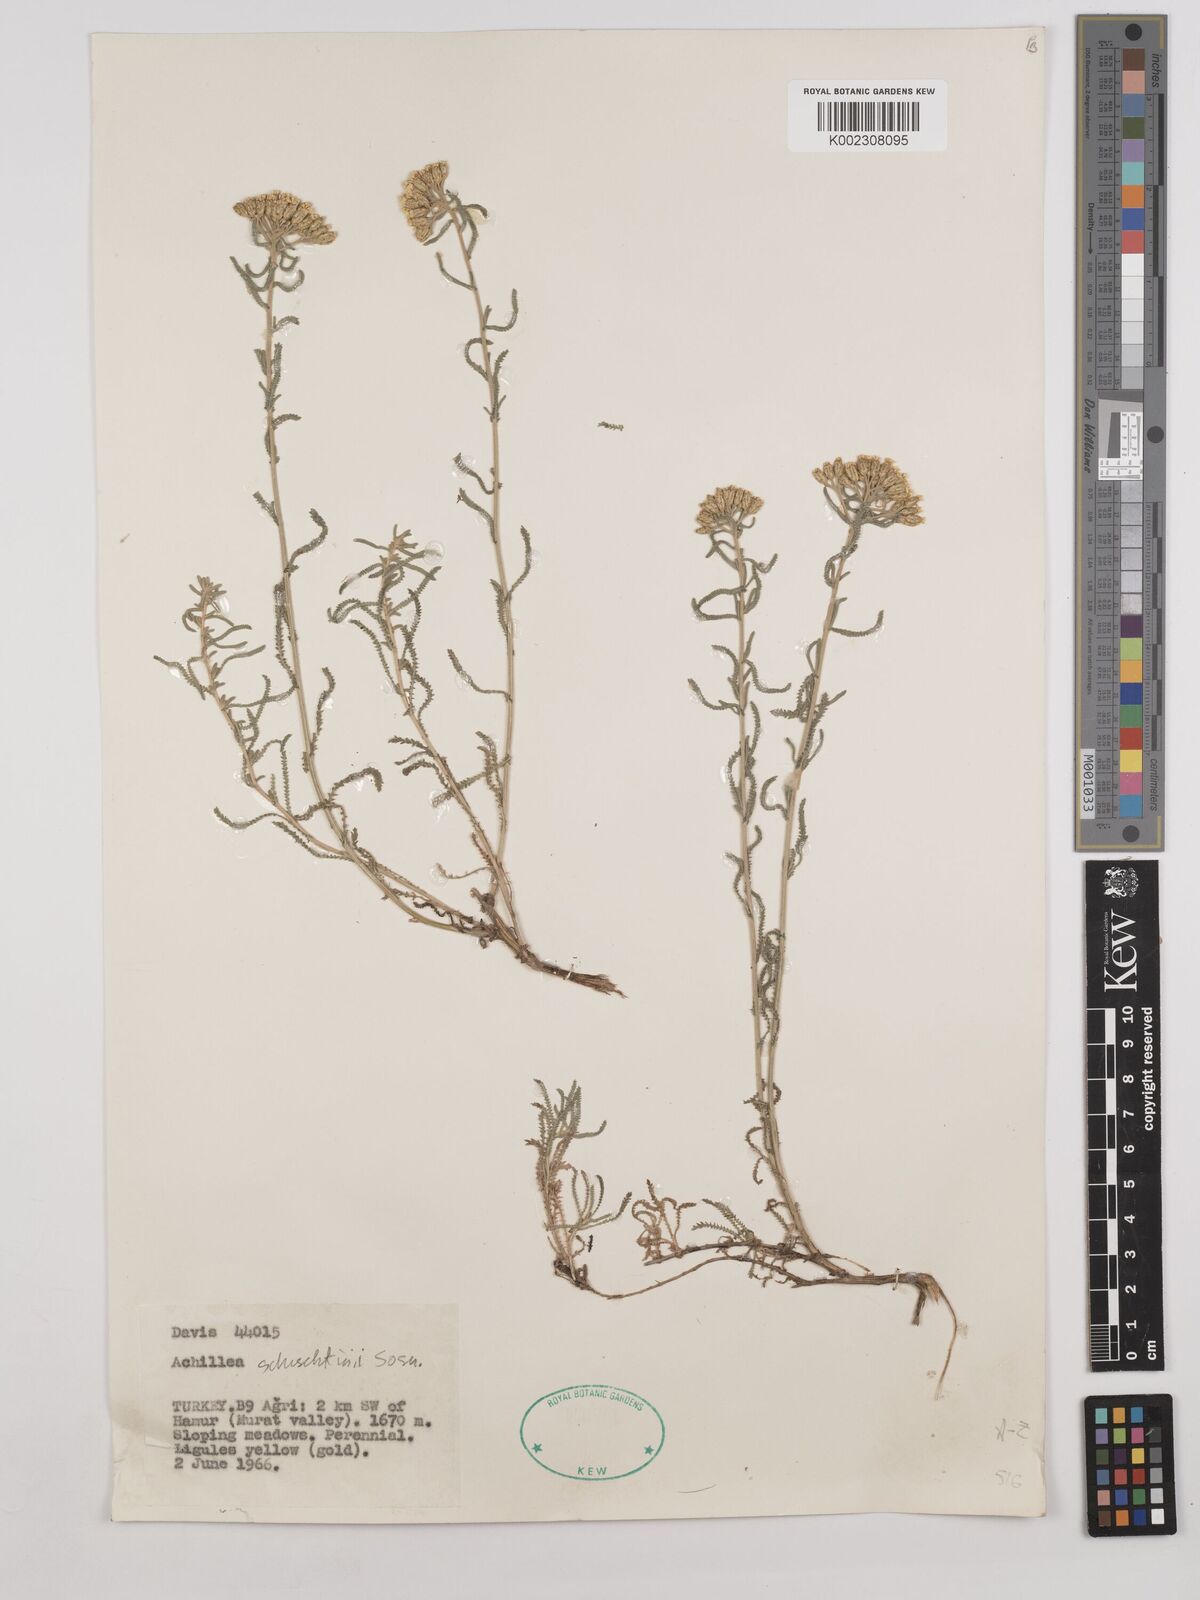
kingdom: Plantae
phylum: Tracheophyta
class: Magnoliopsida
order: Asterales
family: Asteraceae
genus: Achillea
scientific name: Achillea schischkinii
